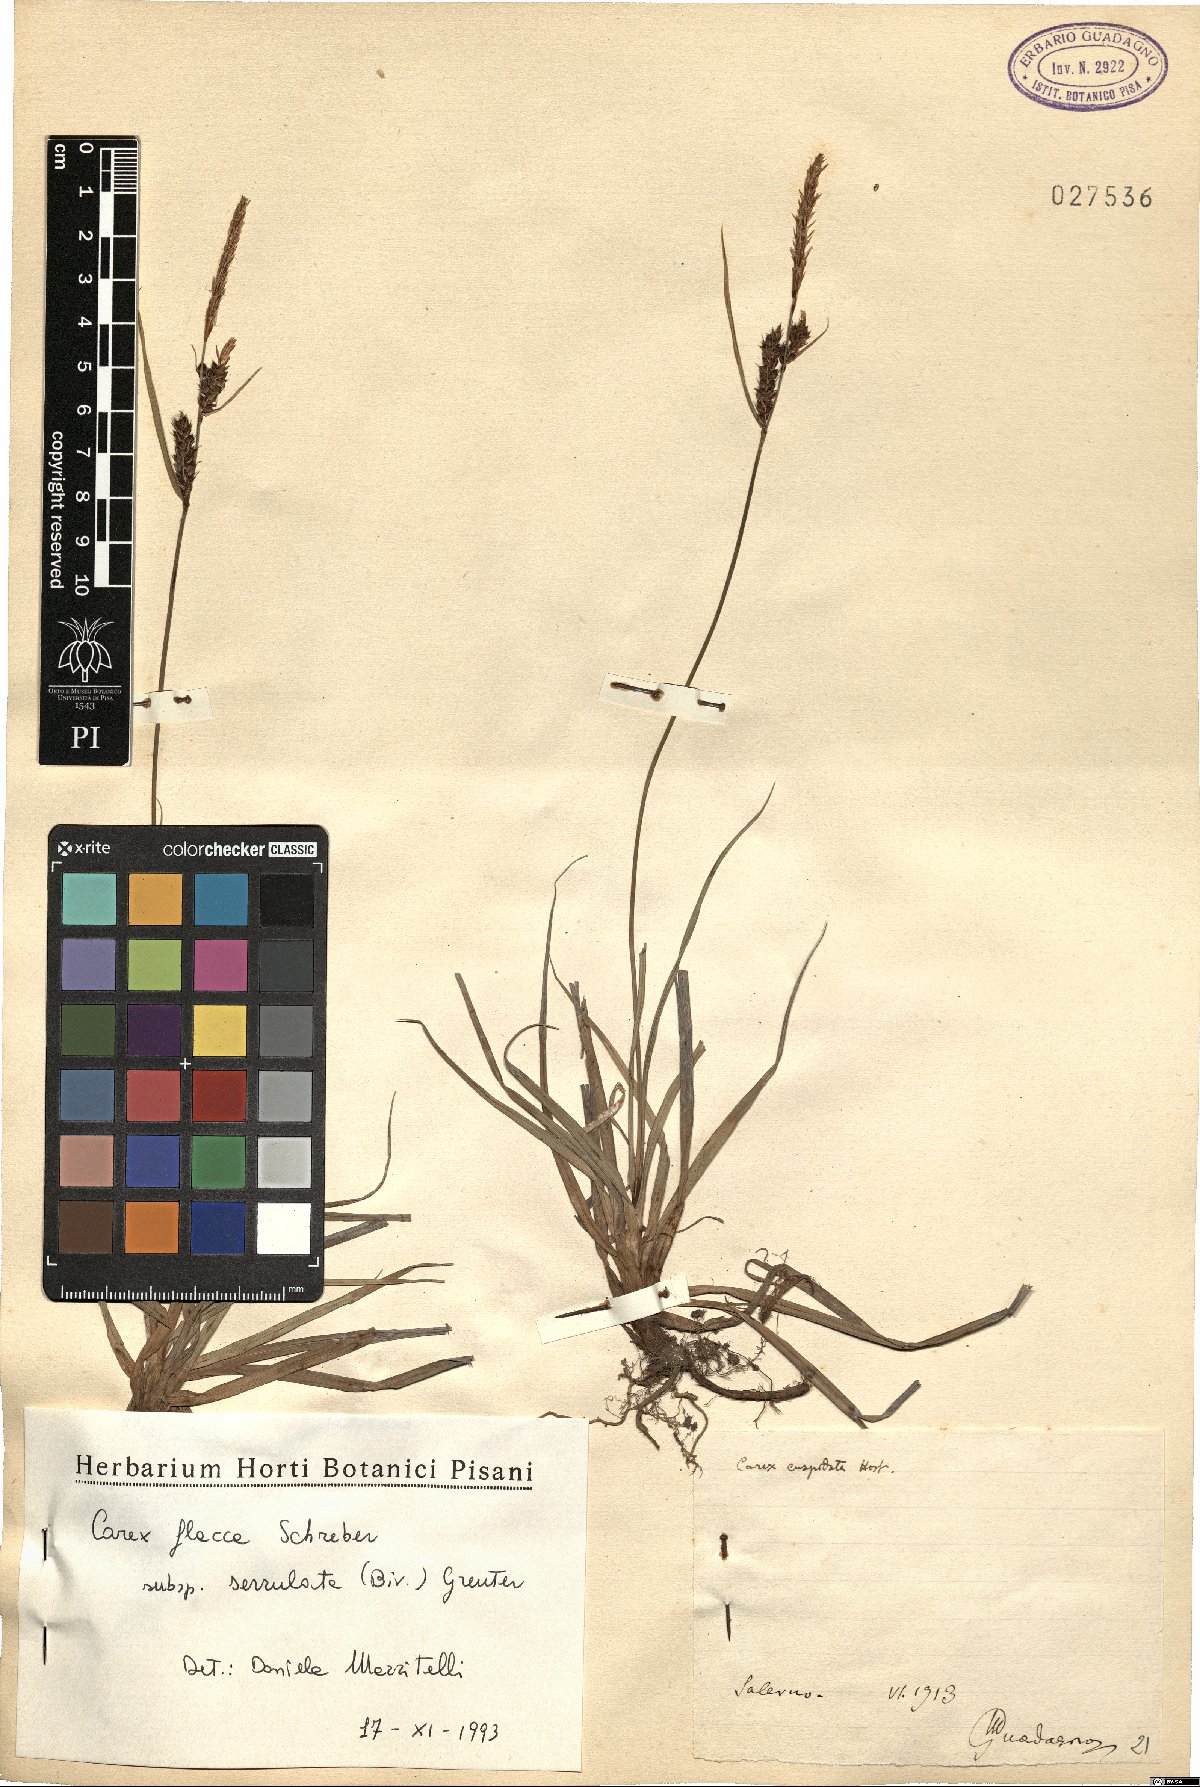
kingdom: Plantae
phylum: Tracheophyta
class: Liliopsida
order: Poales
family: Cyperaceae
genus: Carex
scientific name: Carex flacca
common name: Glaucous sedge
